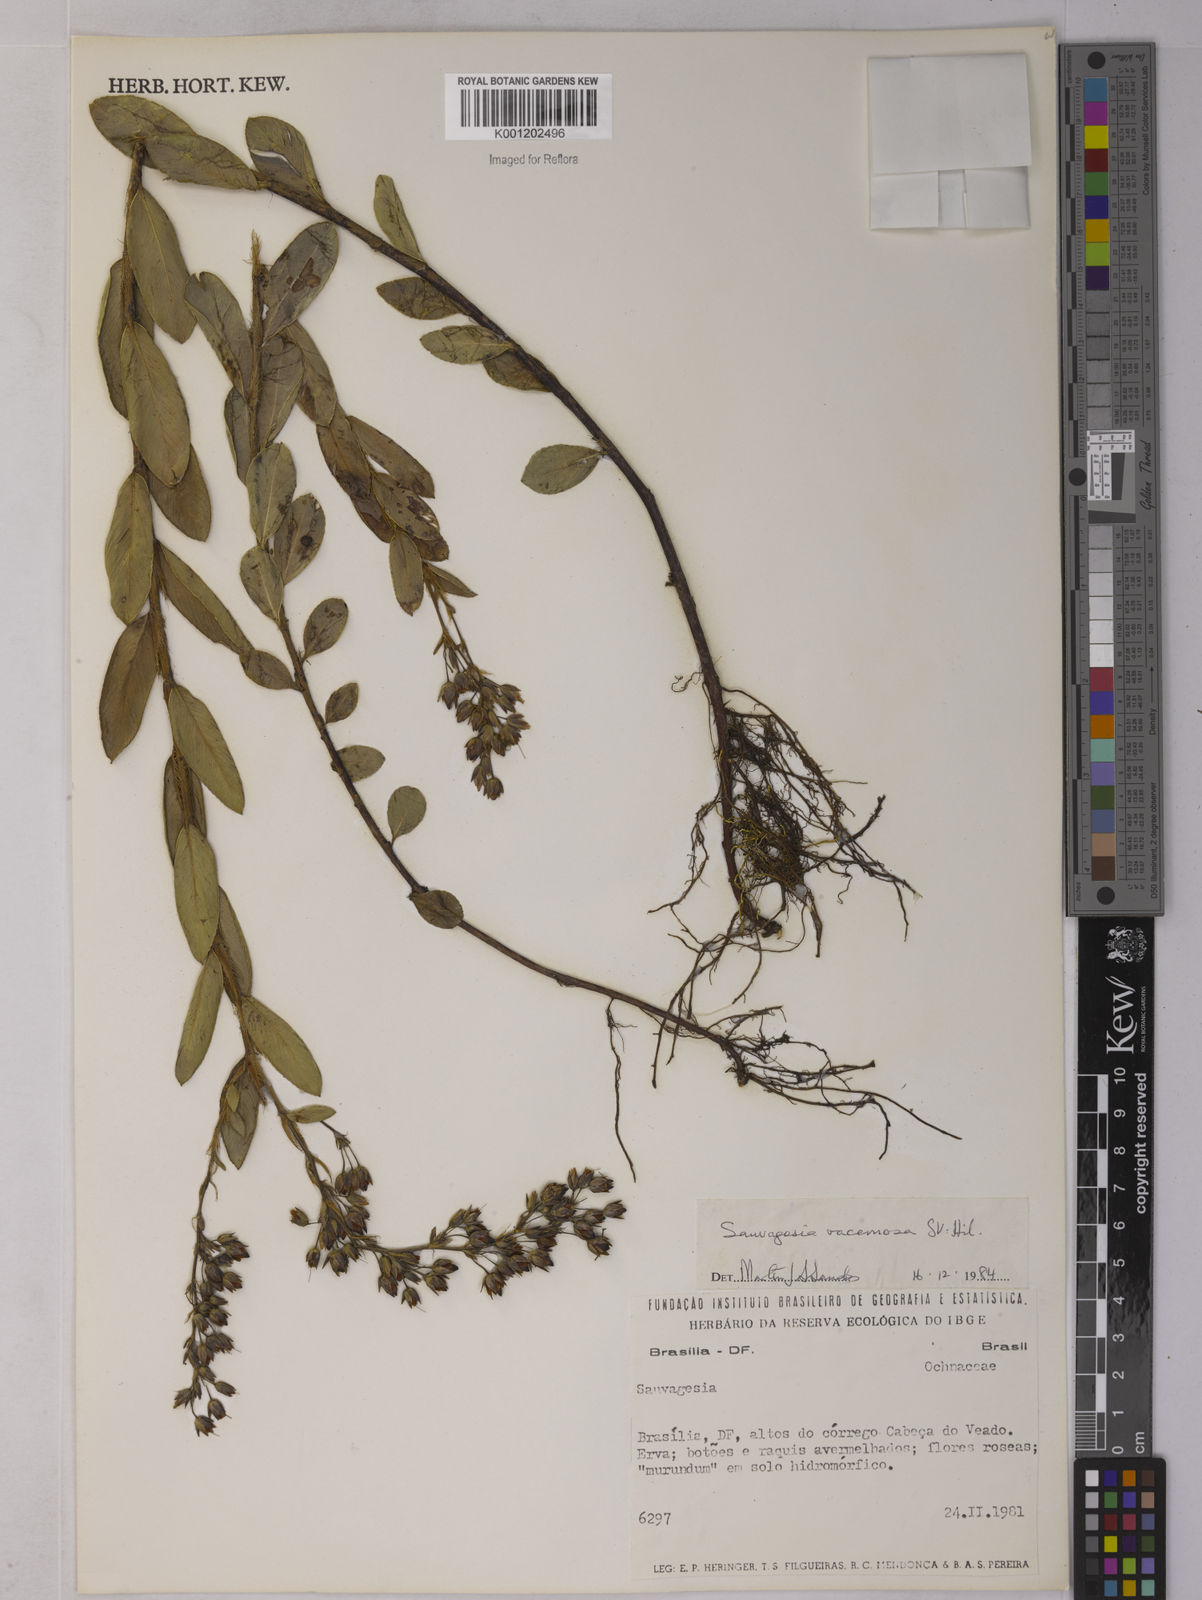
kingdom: Plantae
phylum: Tracheophyta
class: Magnoliopsida
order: Malpighiales
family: Ochnaceae
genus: Sauvagesia
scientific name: Sauvagesia racemosa
